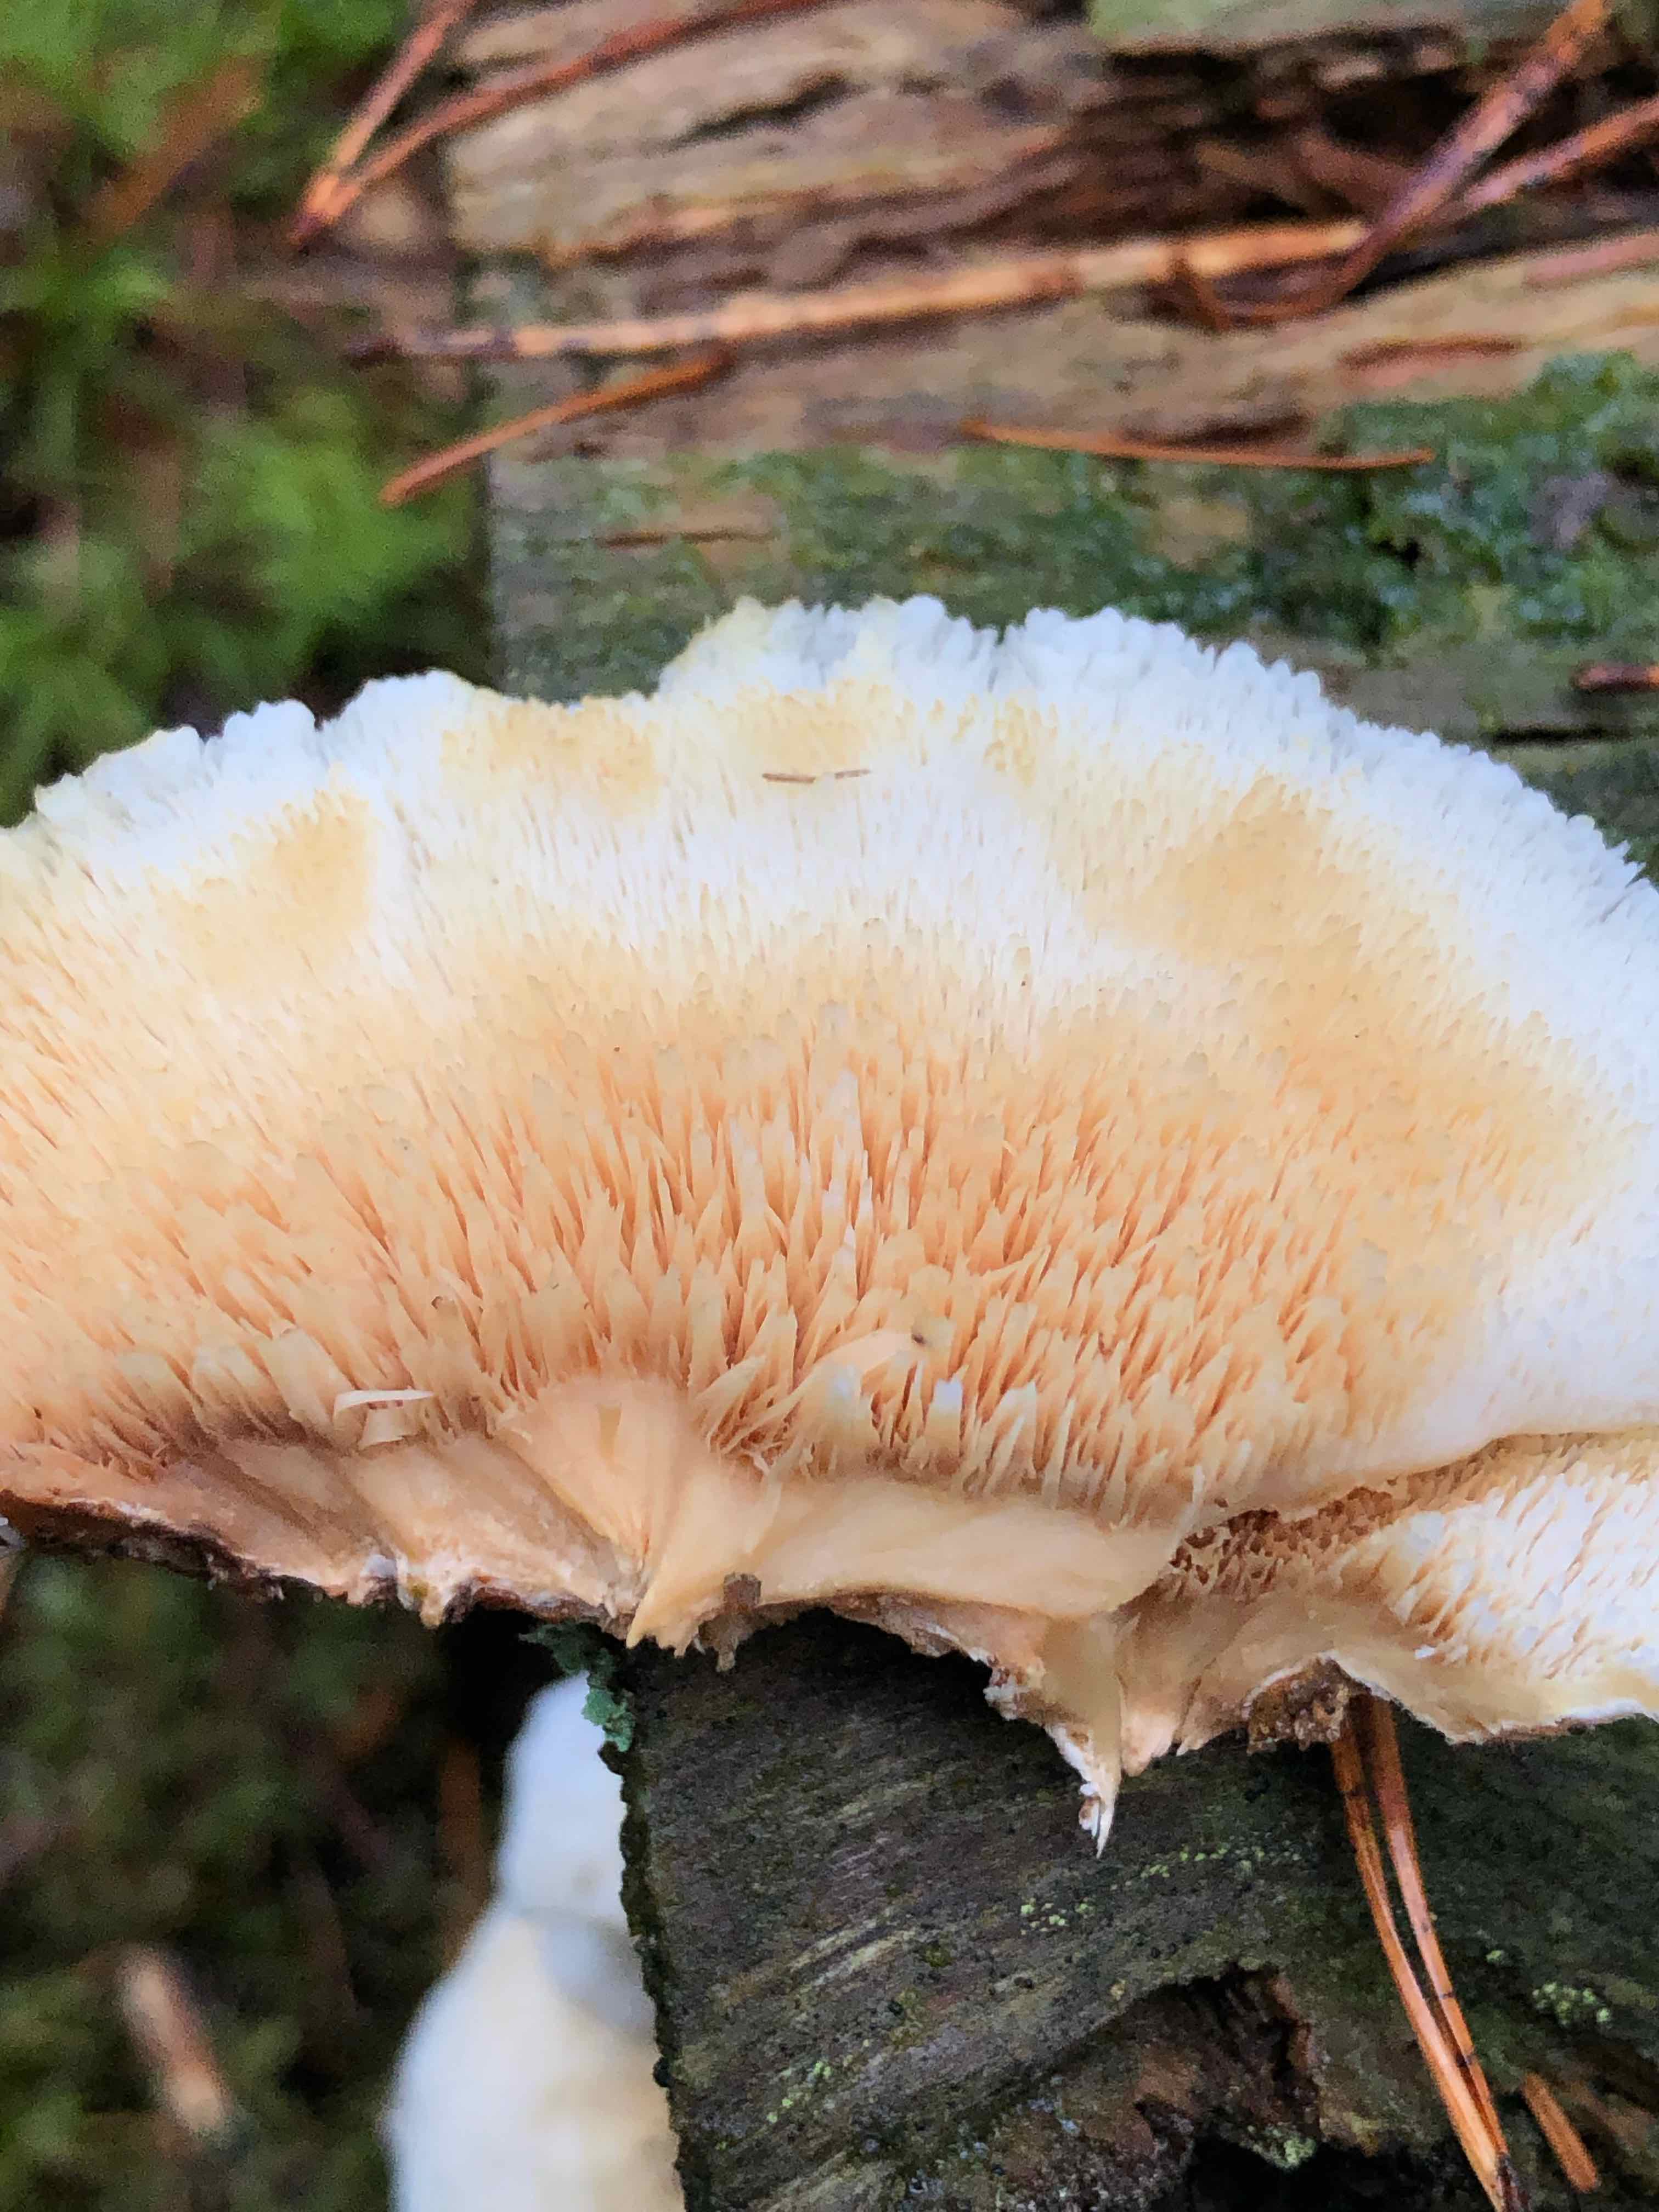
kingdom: Fungi
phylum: Basidiomycota
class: Agaricomycetes
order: Polyporales
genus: Fuscopostia
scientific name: Fuscopostia fragilis
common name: brunende kødporesvamp
